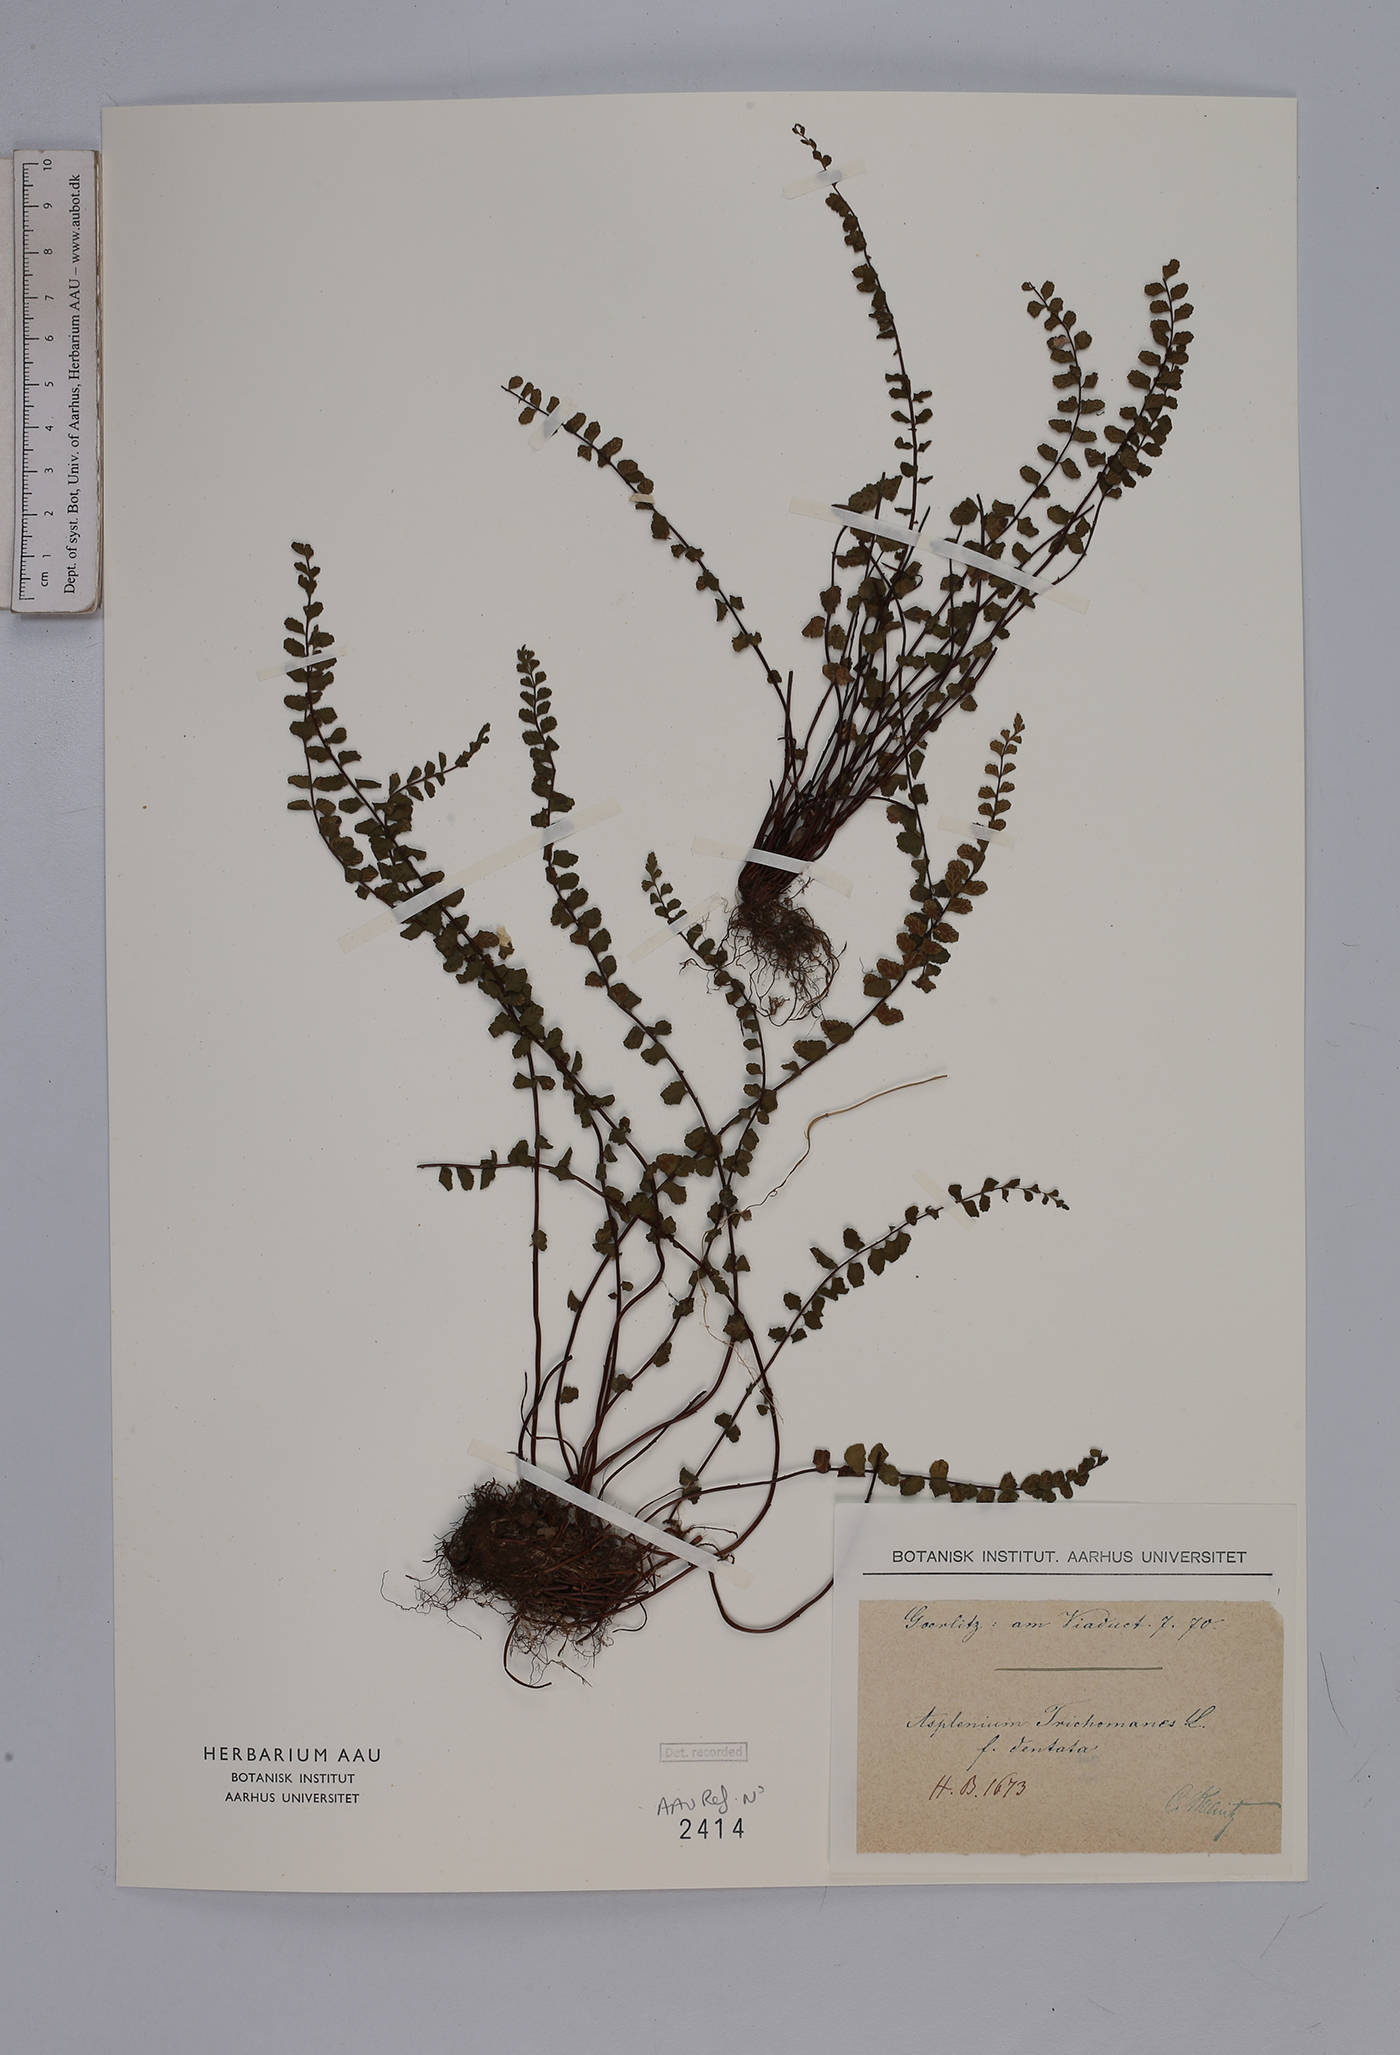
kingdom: Plantae
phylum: Tracheophyta
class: Polypodiopsida
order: Polypodiales
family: Aspleniaceae
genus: Asplenium
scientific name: Asplenium trichomanes
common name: Maidenhair spleenwort
